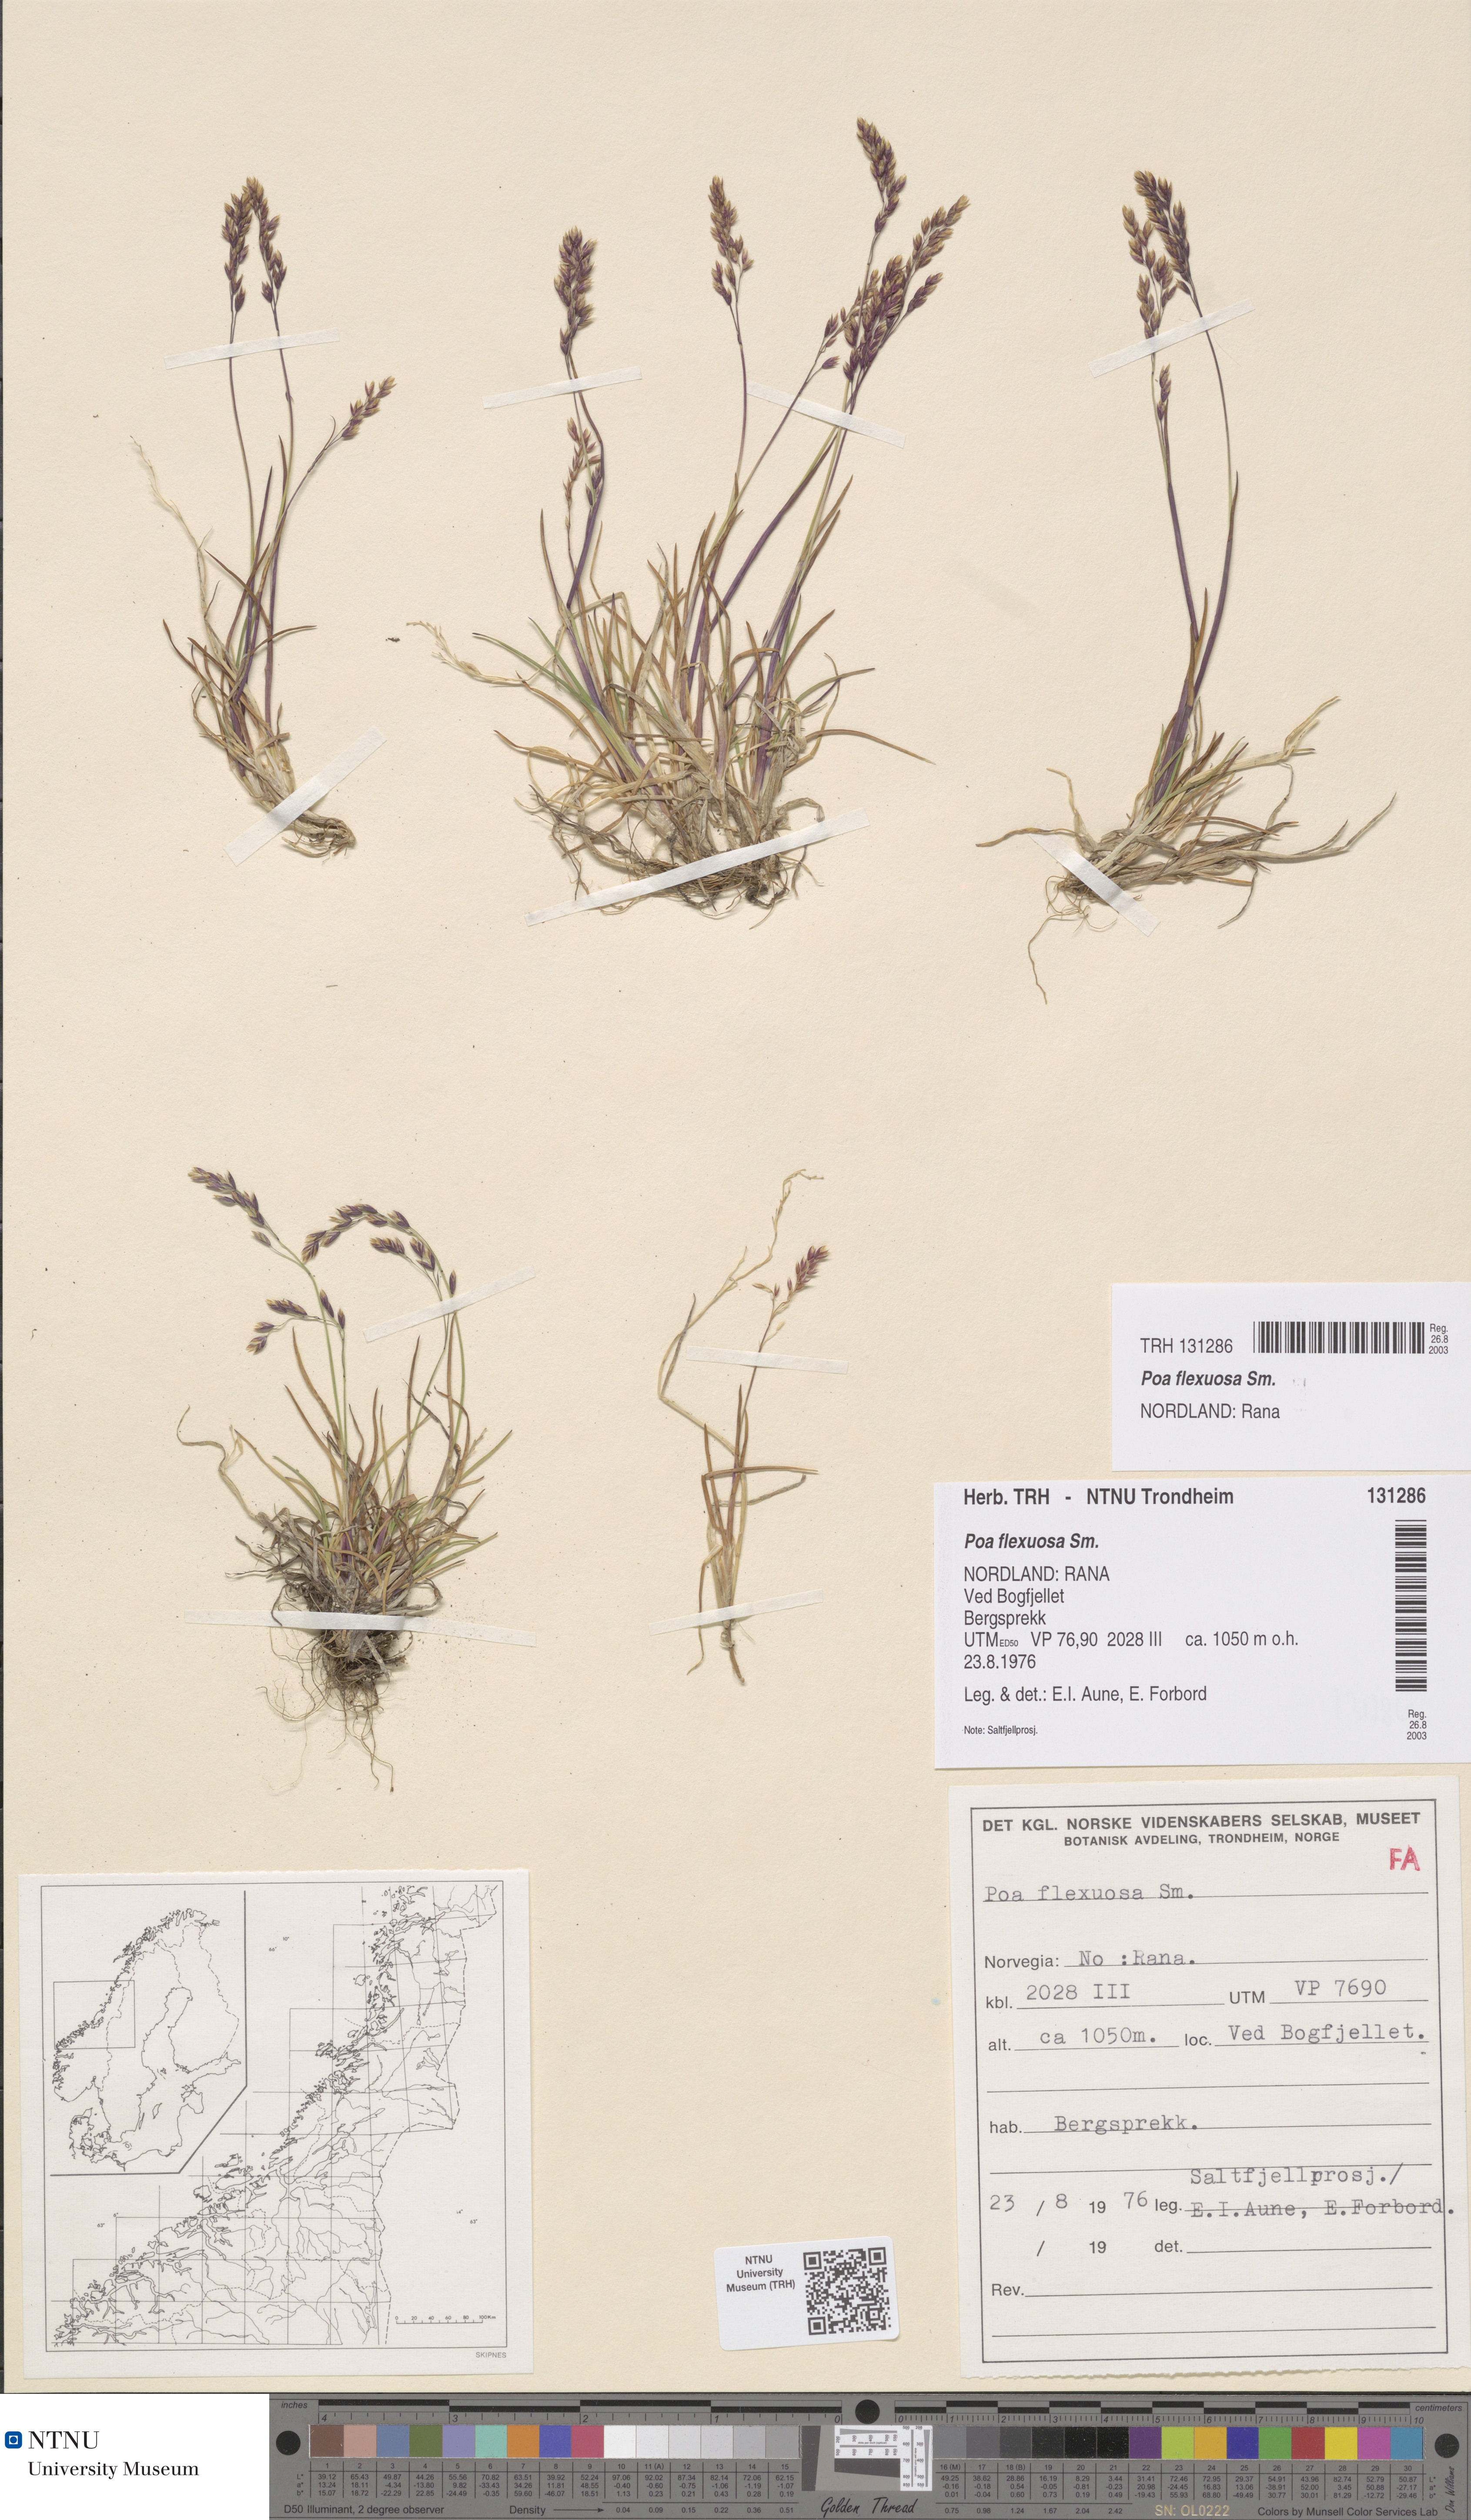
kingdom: Plantae
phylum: Tracheophyta
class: Liliopsida
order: Poales
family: Poaceae
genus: Poa
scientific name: Poa flexuosa
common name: Wavy meadow-grass
